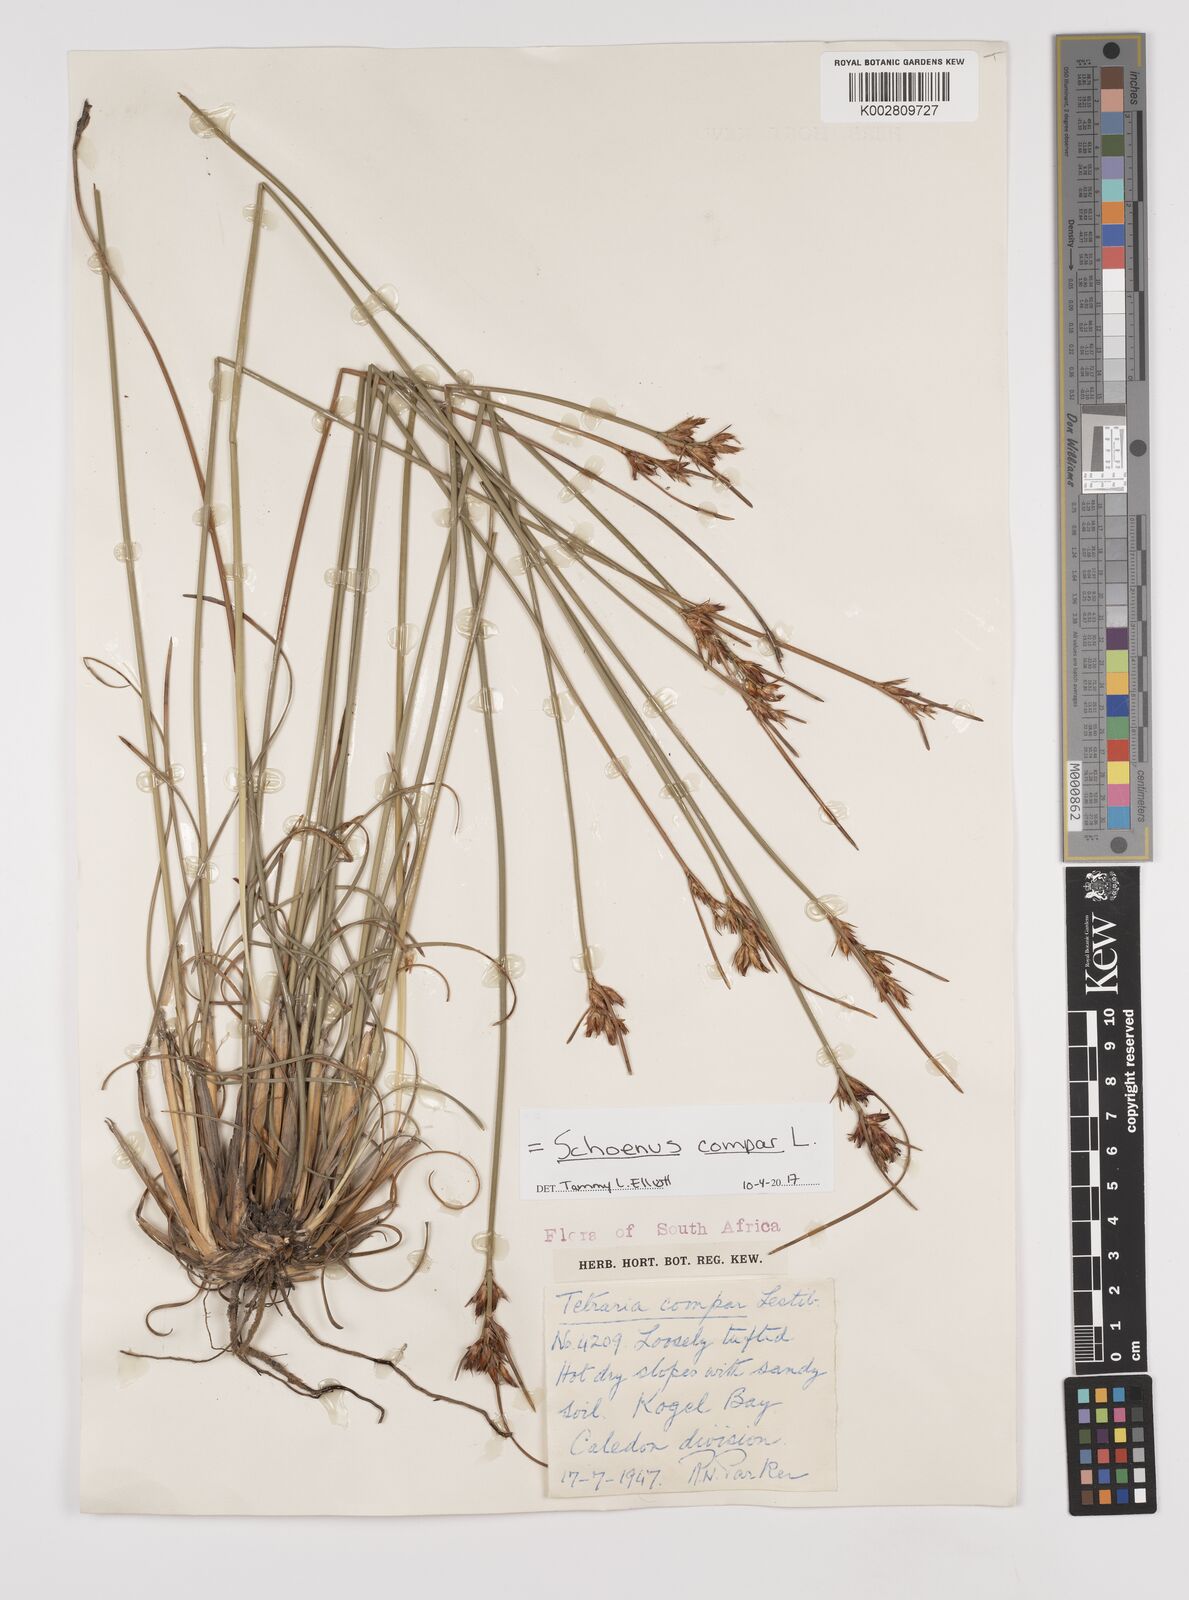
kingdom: Plantae
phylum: Tracheophyta
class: Liliopsida
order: Poales
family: Cyperaceae
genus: Schoenus
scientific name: Schoenus compar
